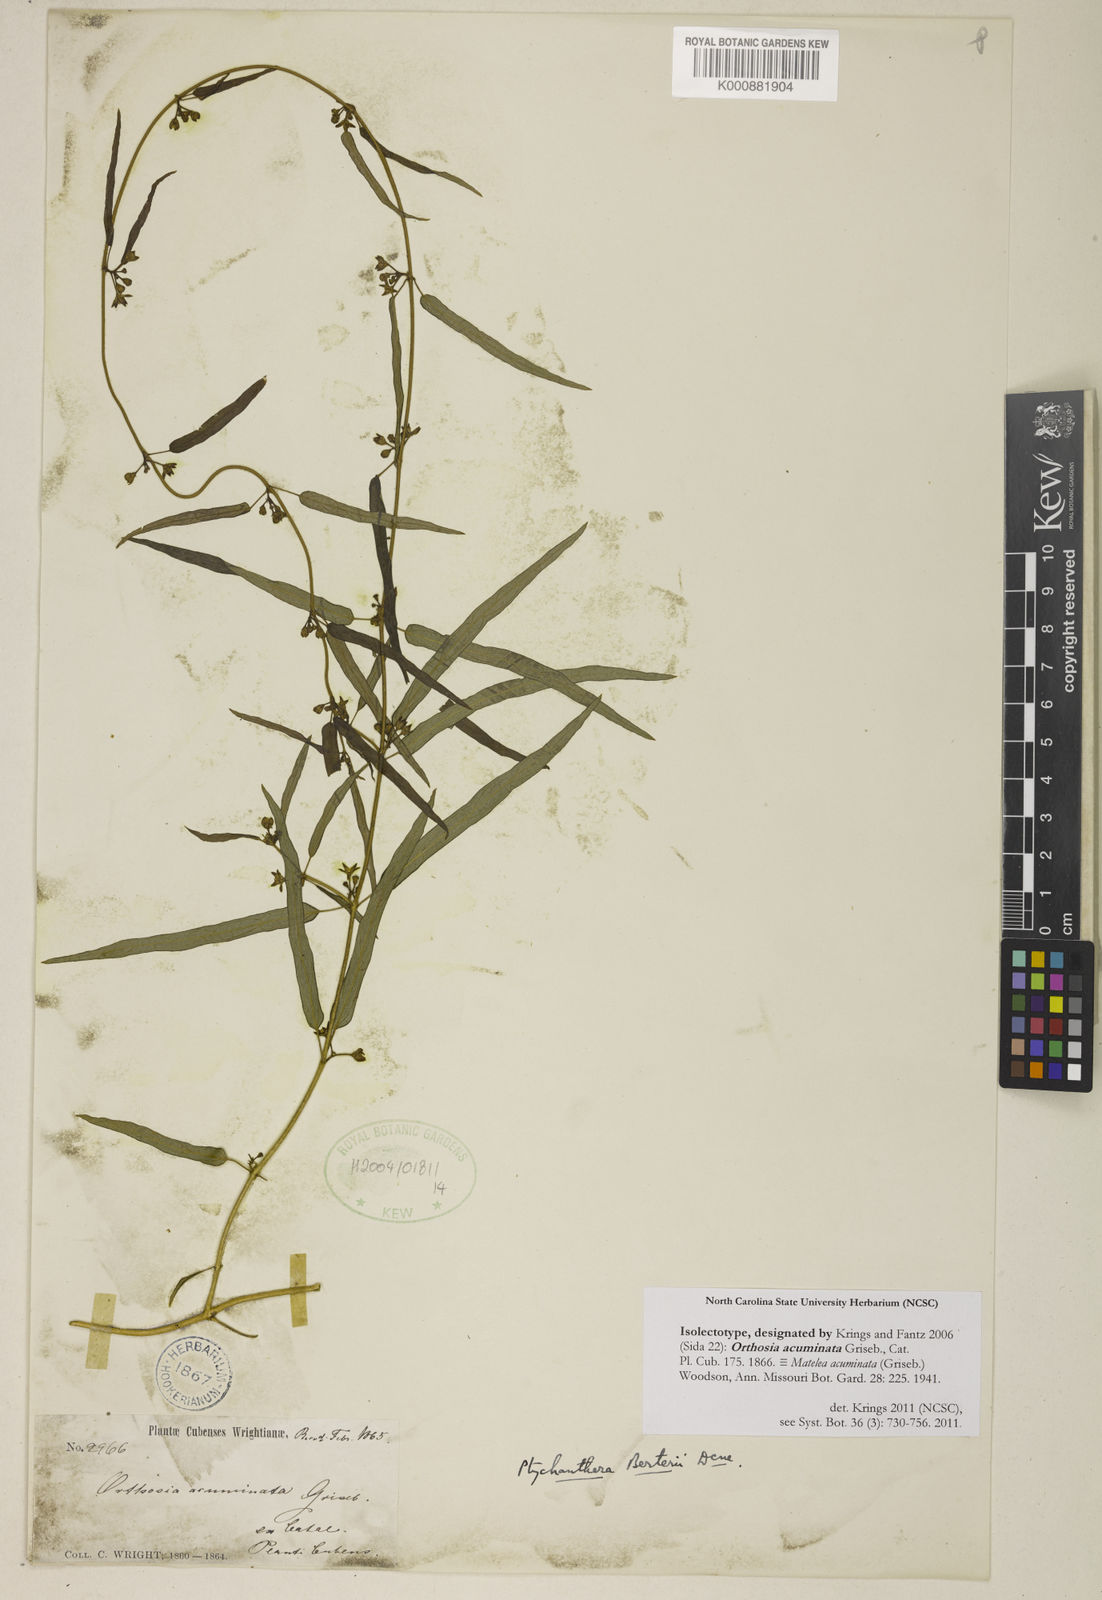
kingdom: Plantae
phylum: Tracheophyta
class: Magnoliopsida
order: Gentianales
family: Apocynaceae
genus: Poicillopsis
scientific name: Poicillopsis acuminata
